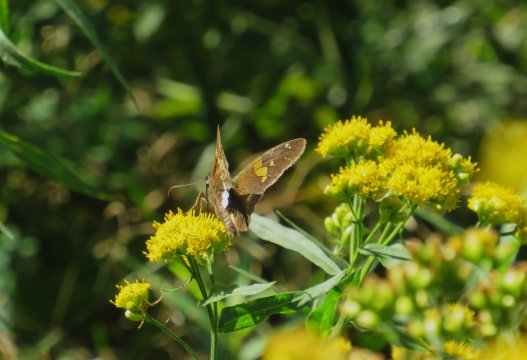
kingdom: Animalia
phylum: Arthropoda
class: Insecta
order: Lepidoptera
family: Hesperiidae
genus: Epargyreus
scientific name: Epargyreus clarus
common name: Silver-spotted Skipper
